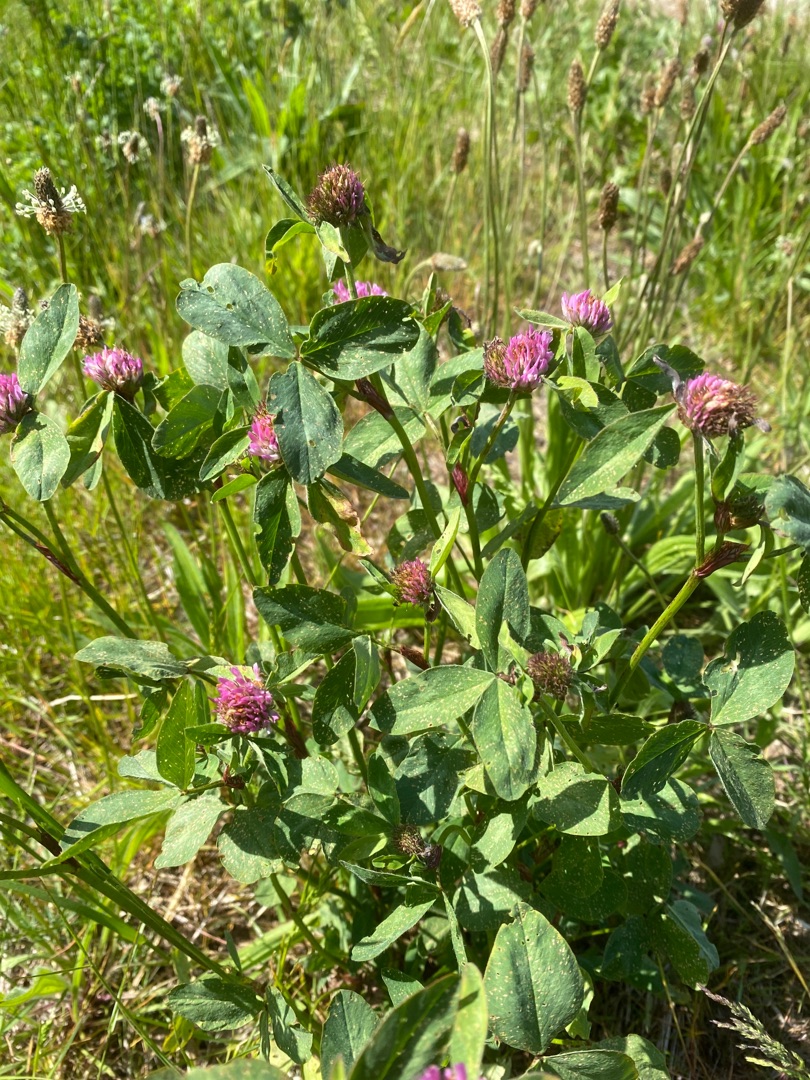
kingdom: Plantae
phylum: Tracheophyta
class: Magnoliopsida
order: Fabales
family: Fabaceae
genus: Trifolium
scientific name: Trifolium pratense
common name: Rød-kløver
